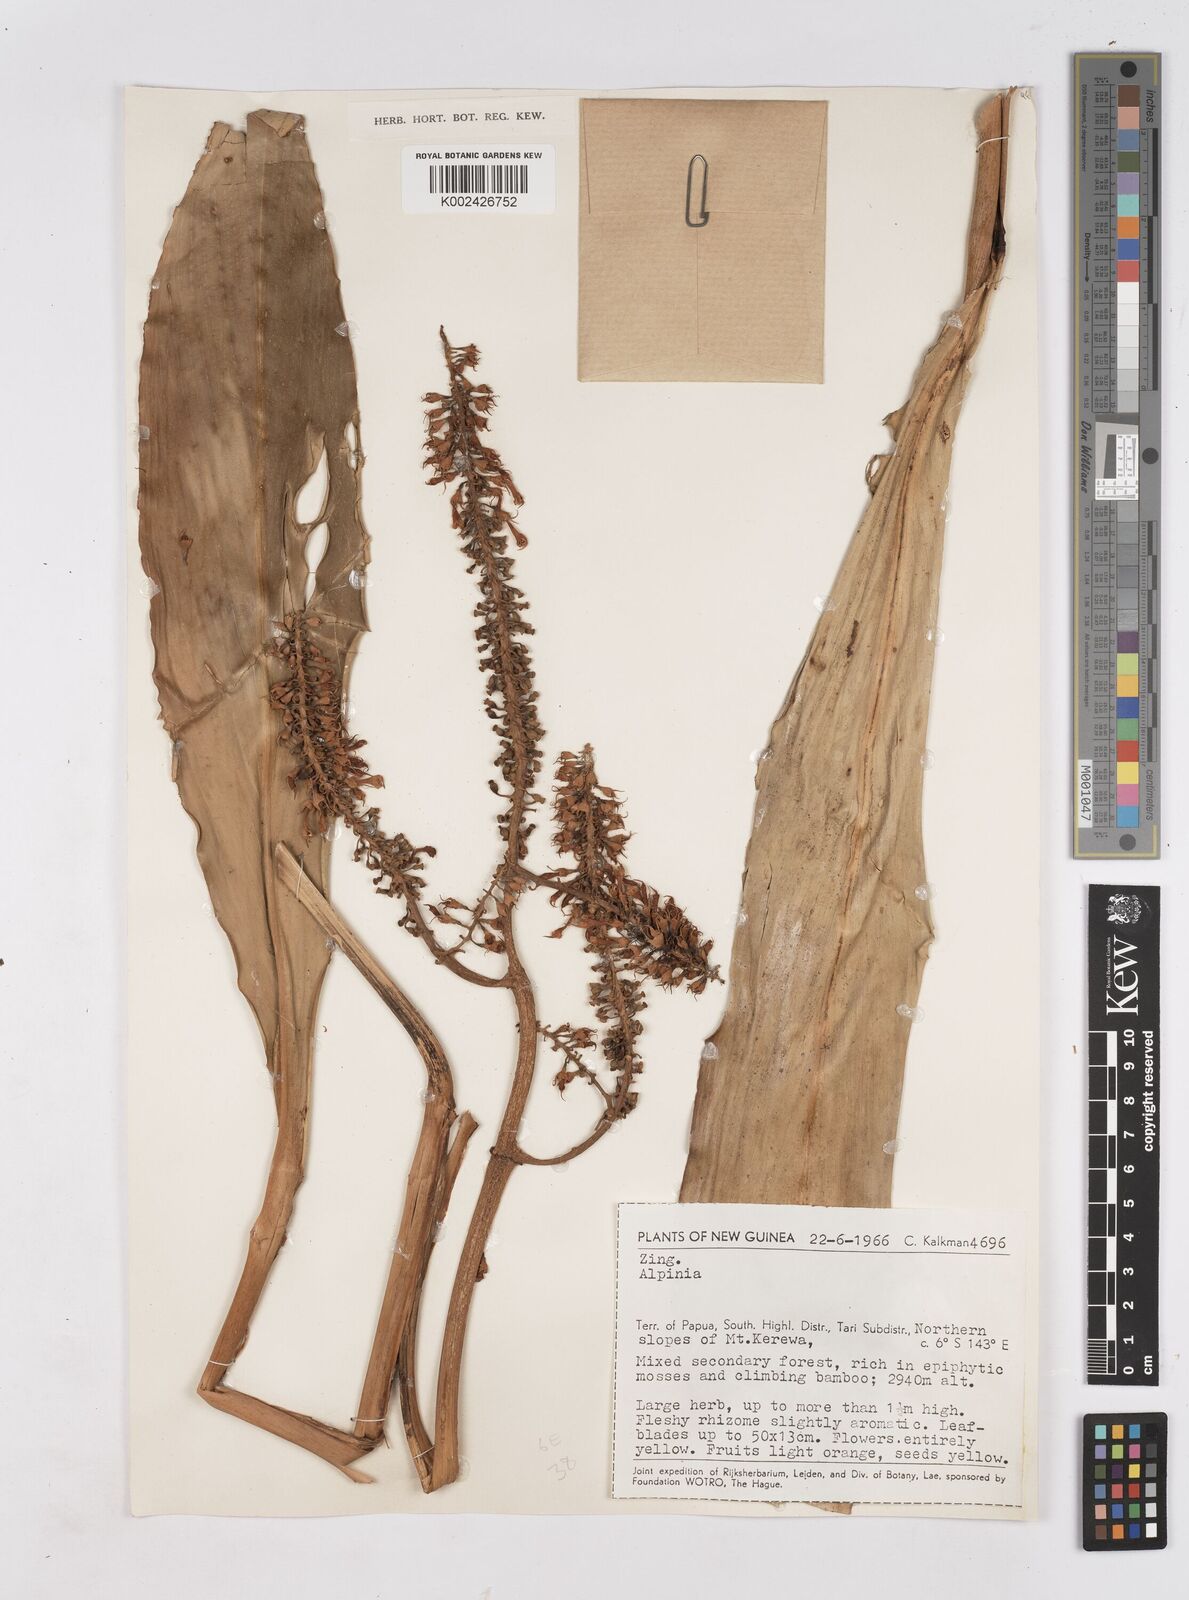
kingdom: Plantae
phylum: Tracheophyta
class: Liliopsida
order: Zingiberales
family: Zingiberaceae
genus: Riedelia
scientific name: Riedelia
